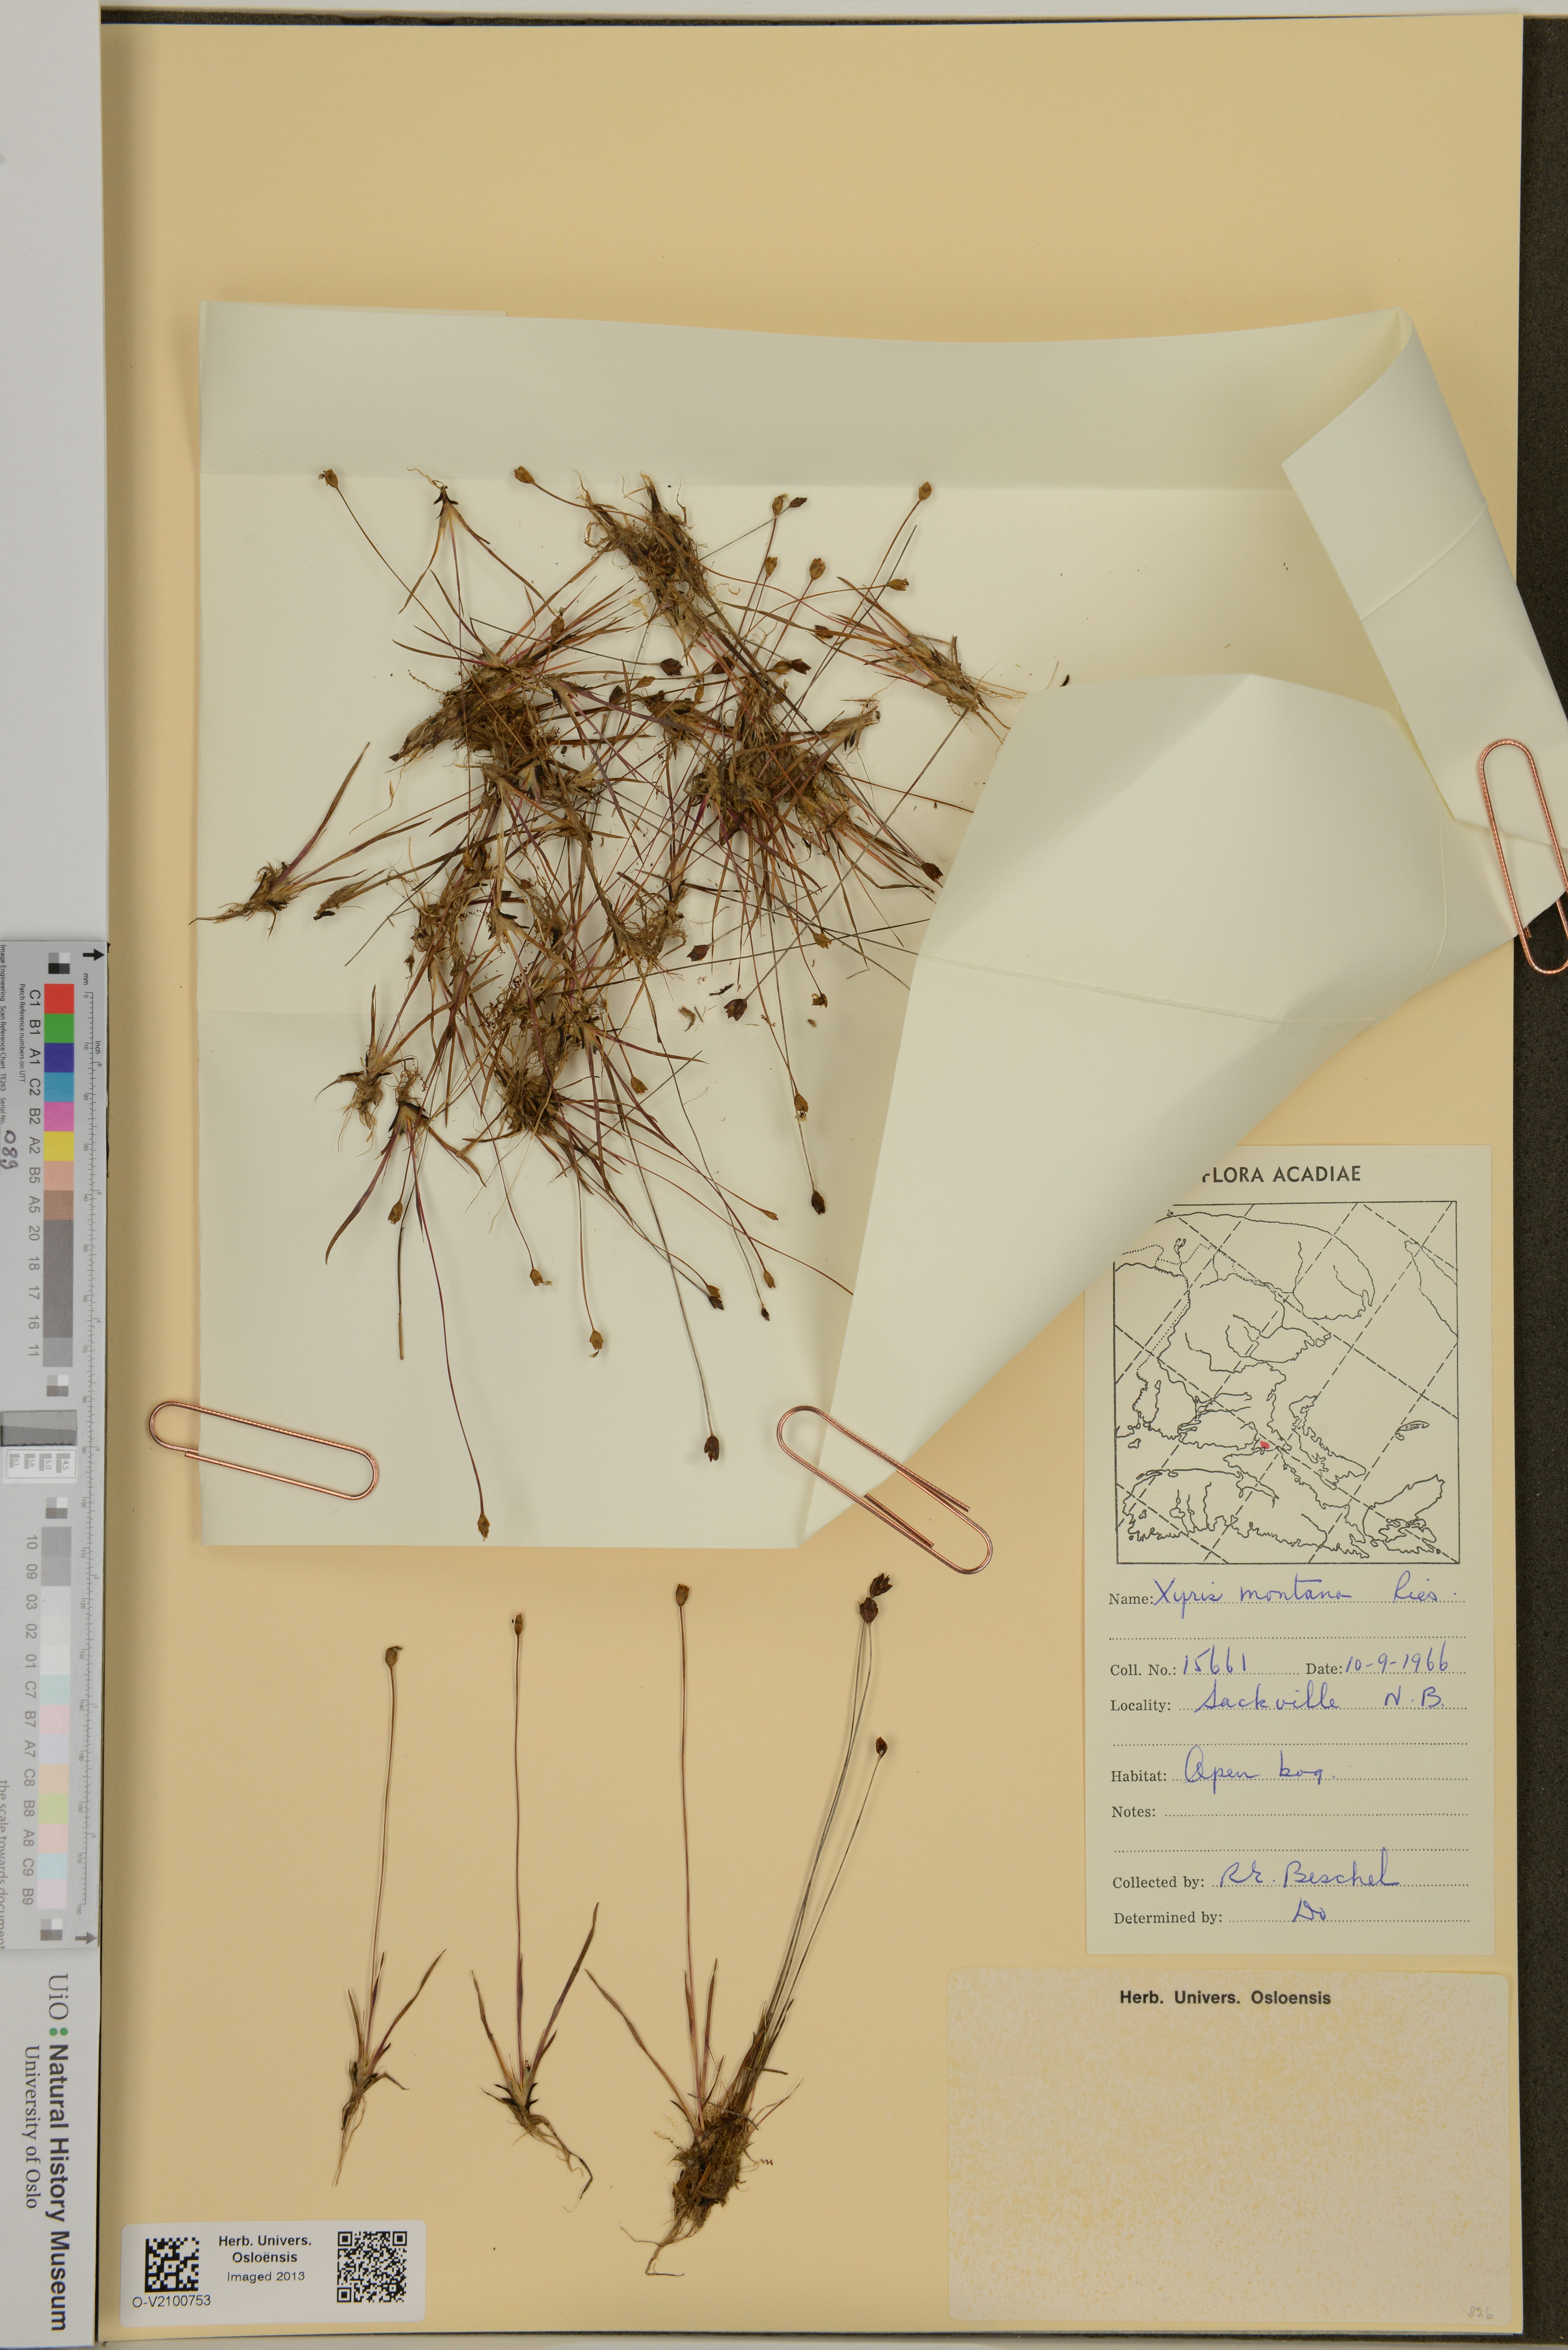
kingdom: Plantae
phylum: Tracheophyta
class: Liliopsida
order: Poales
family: Xyridaceae
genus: Xyris
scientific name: Xyris montana
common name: Northern yellow-eyed-grass
